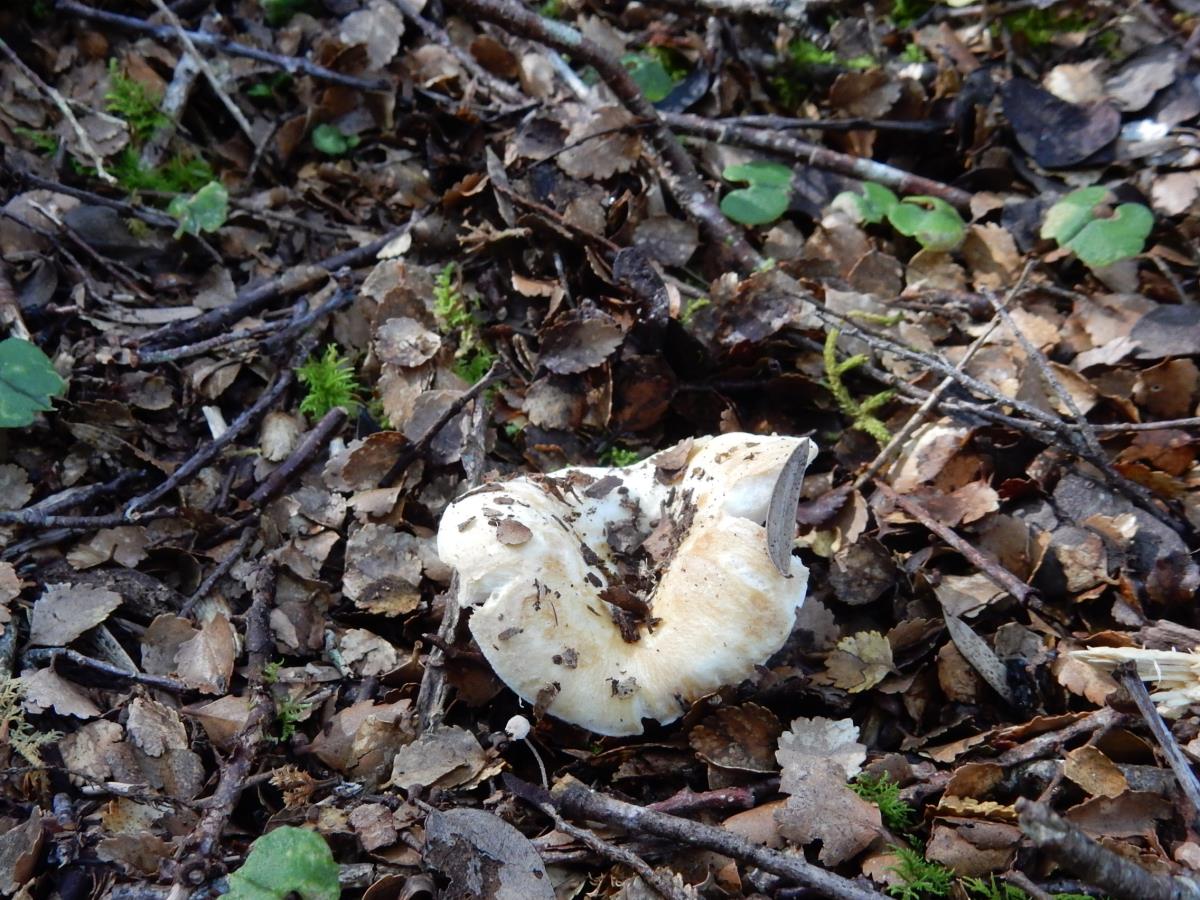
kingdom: Fungi
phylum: Basidiomycota
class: Agaricomycetes
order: Russulales
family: Russulaceae
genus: Russula
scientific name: Russula cremeo-ochracea
